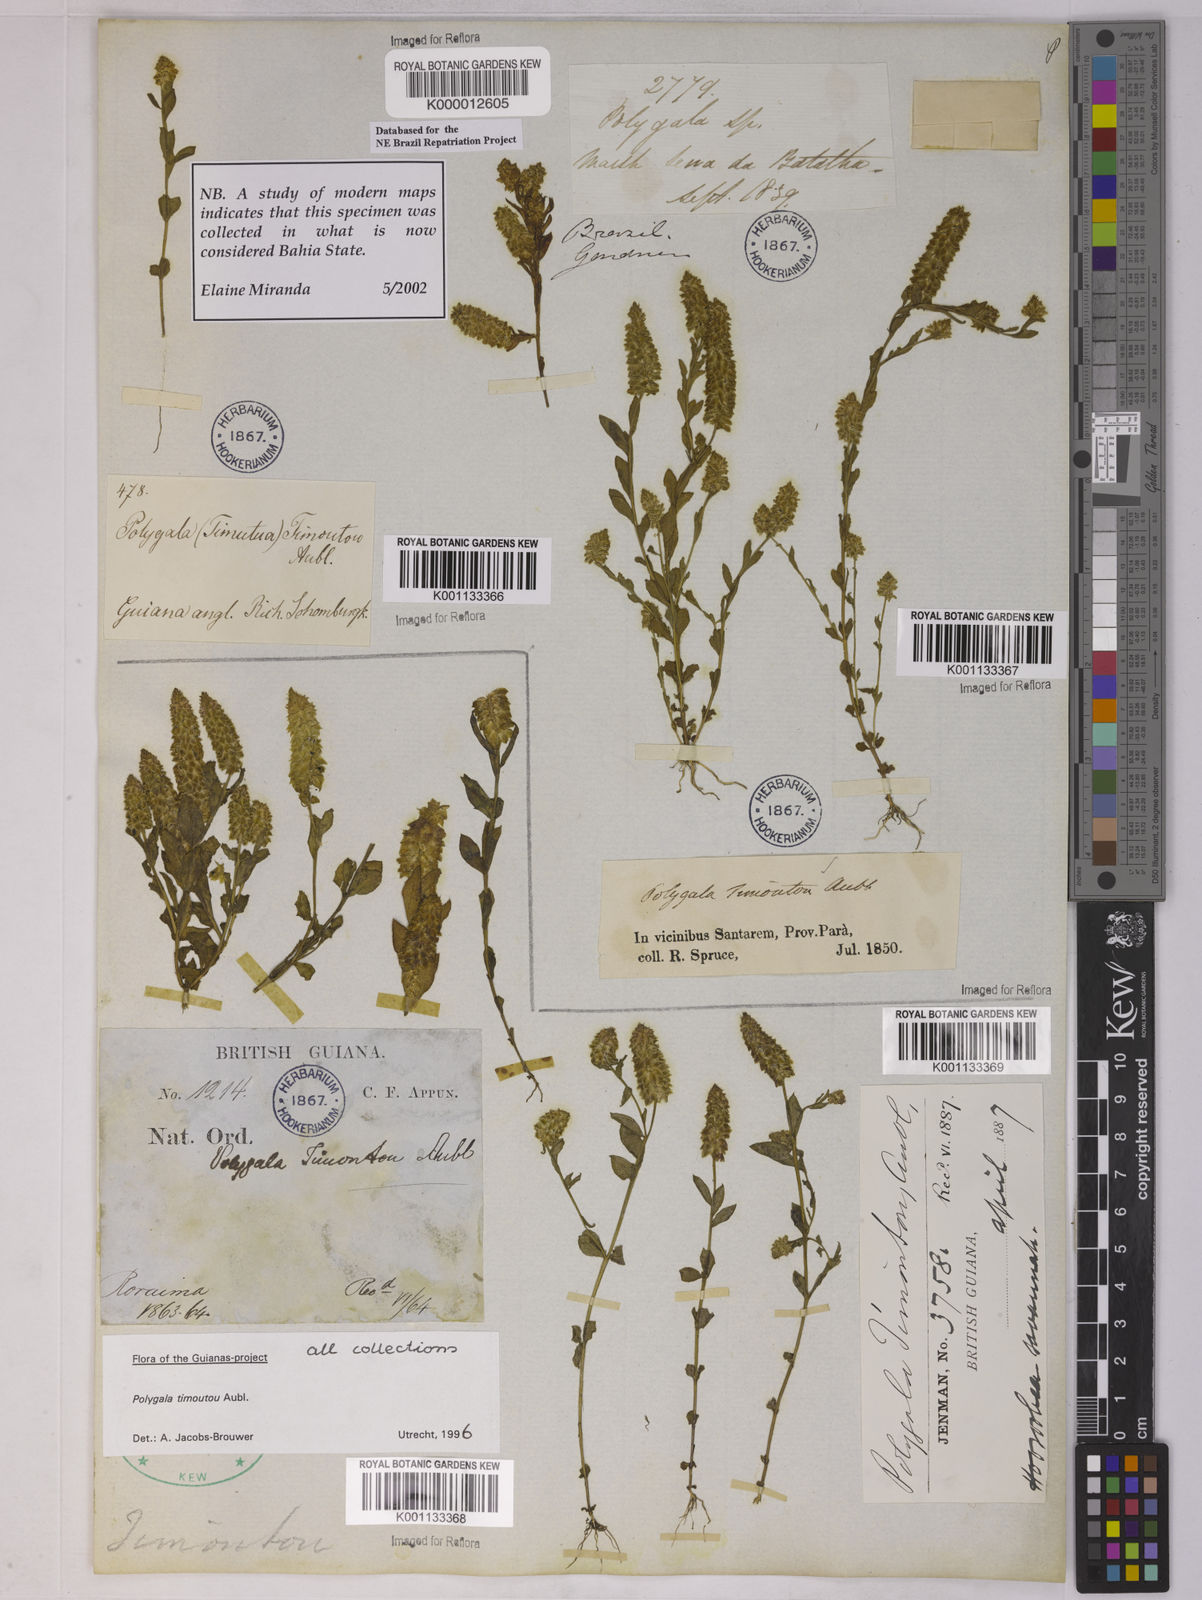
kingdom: Plantae
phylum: Tracheophyta
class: Magnoliopsida
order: Fabales
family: Polygalaceae
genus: Polygala
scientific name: Polygala timoutoides
